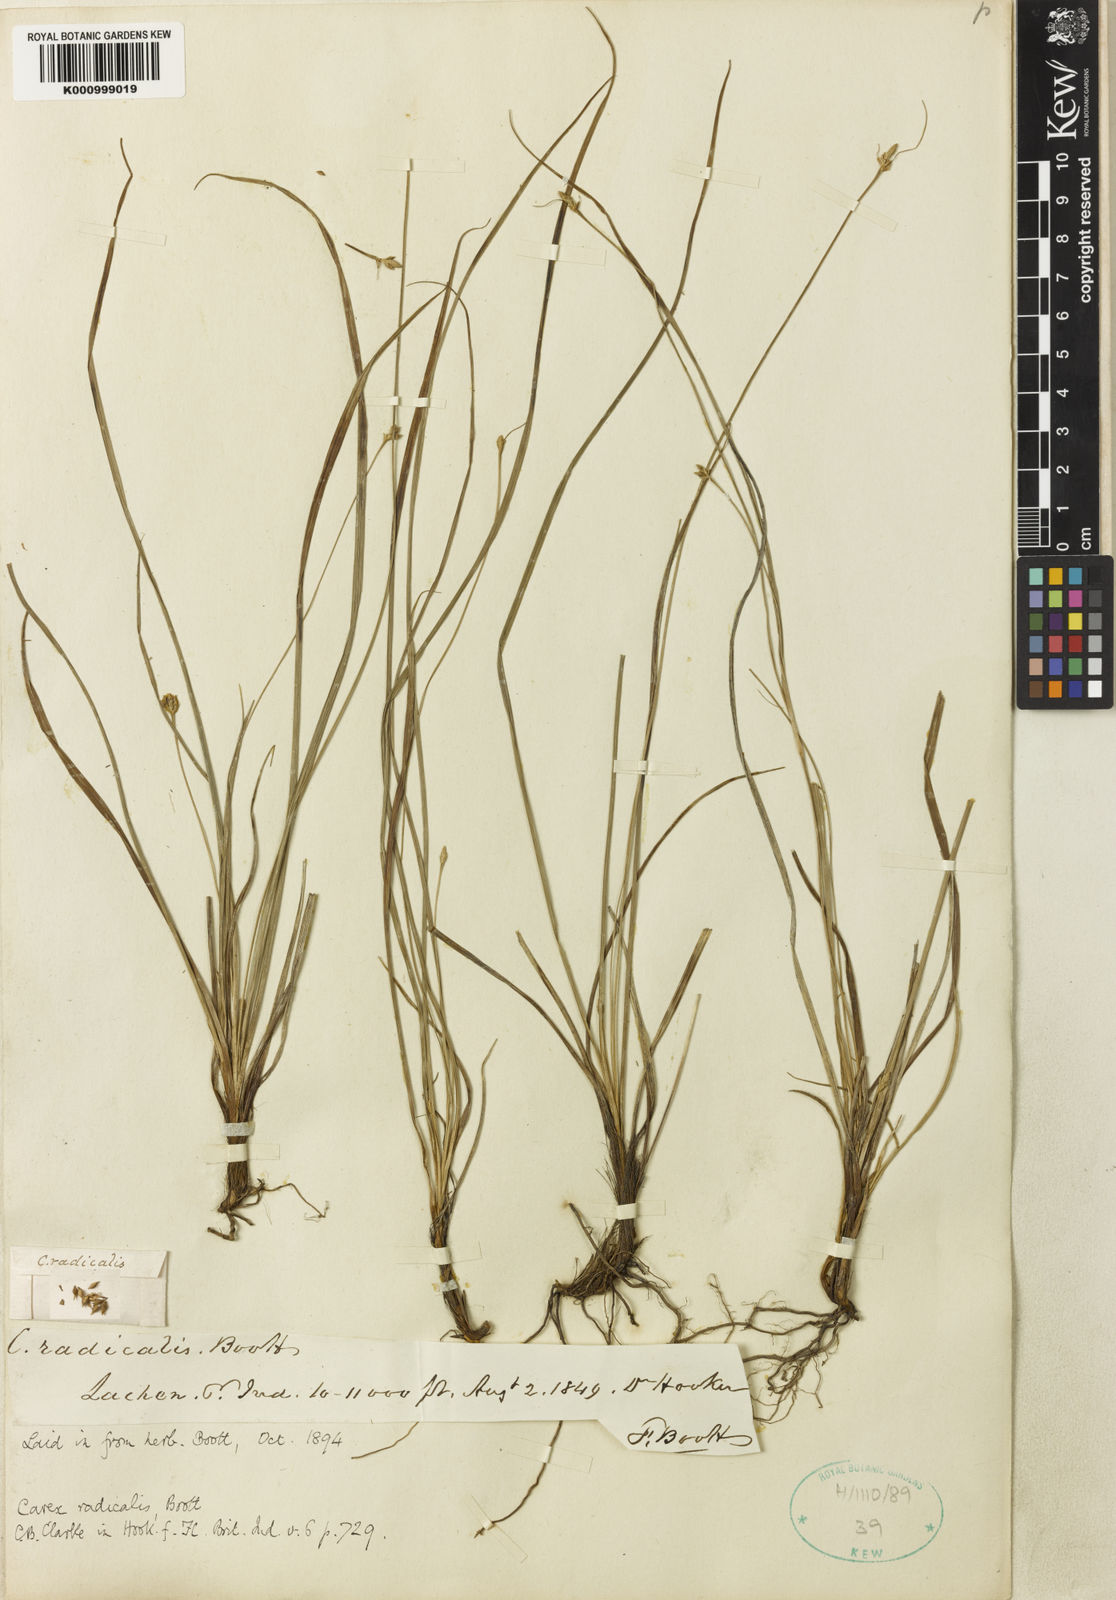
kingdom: Plantae
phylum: Tracheophyta
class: Liliopsida
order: Poales
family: Cyperaceae
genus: Carex
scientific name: Carex radicalis
